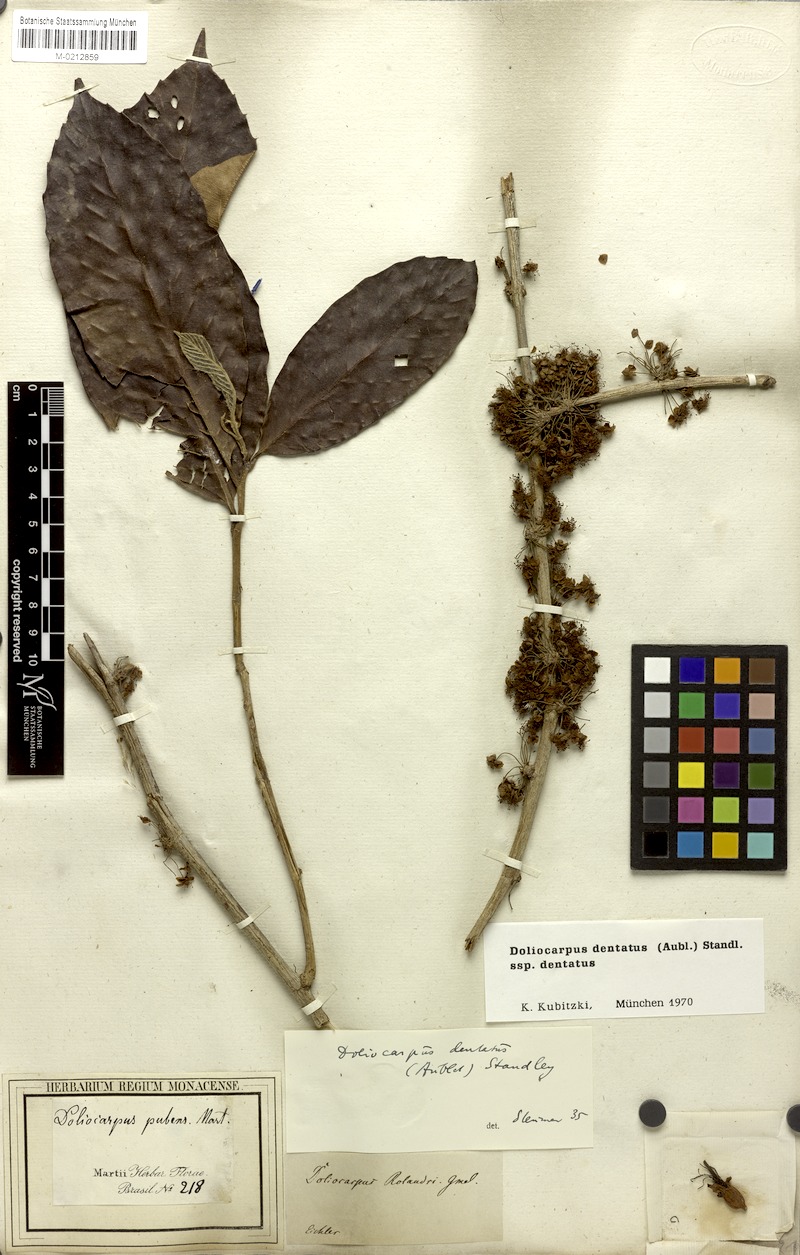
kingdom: Plantae
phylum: Tracheophyta
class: Magnoliopsida
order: Dilleniales
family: Dilleniaceae
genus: Doliocarpus
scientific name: Doliocarpus dentatus
